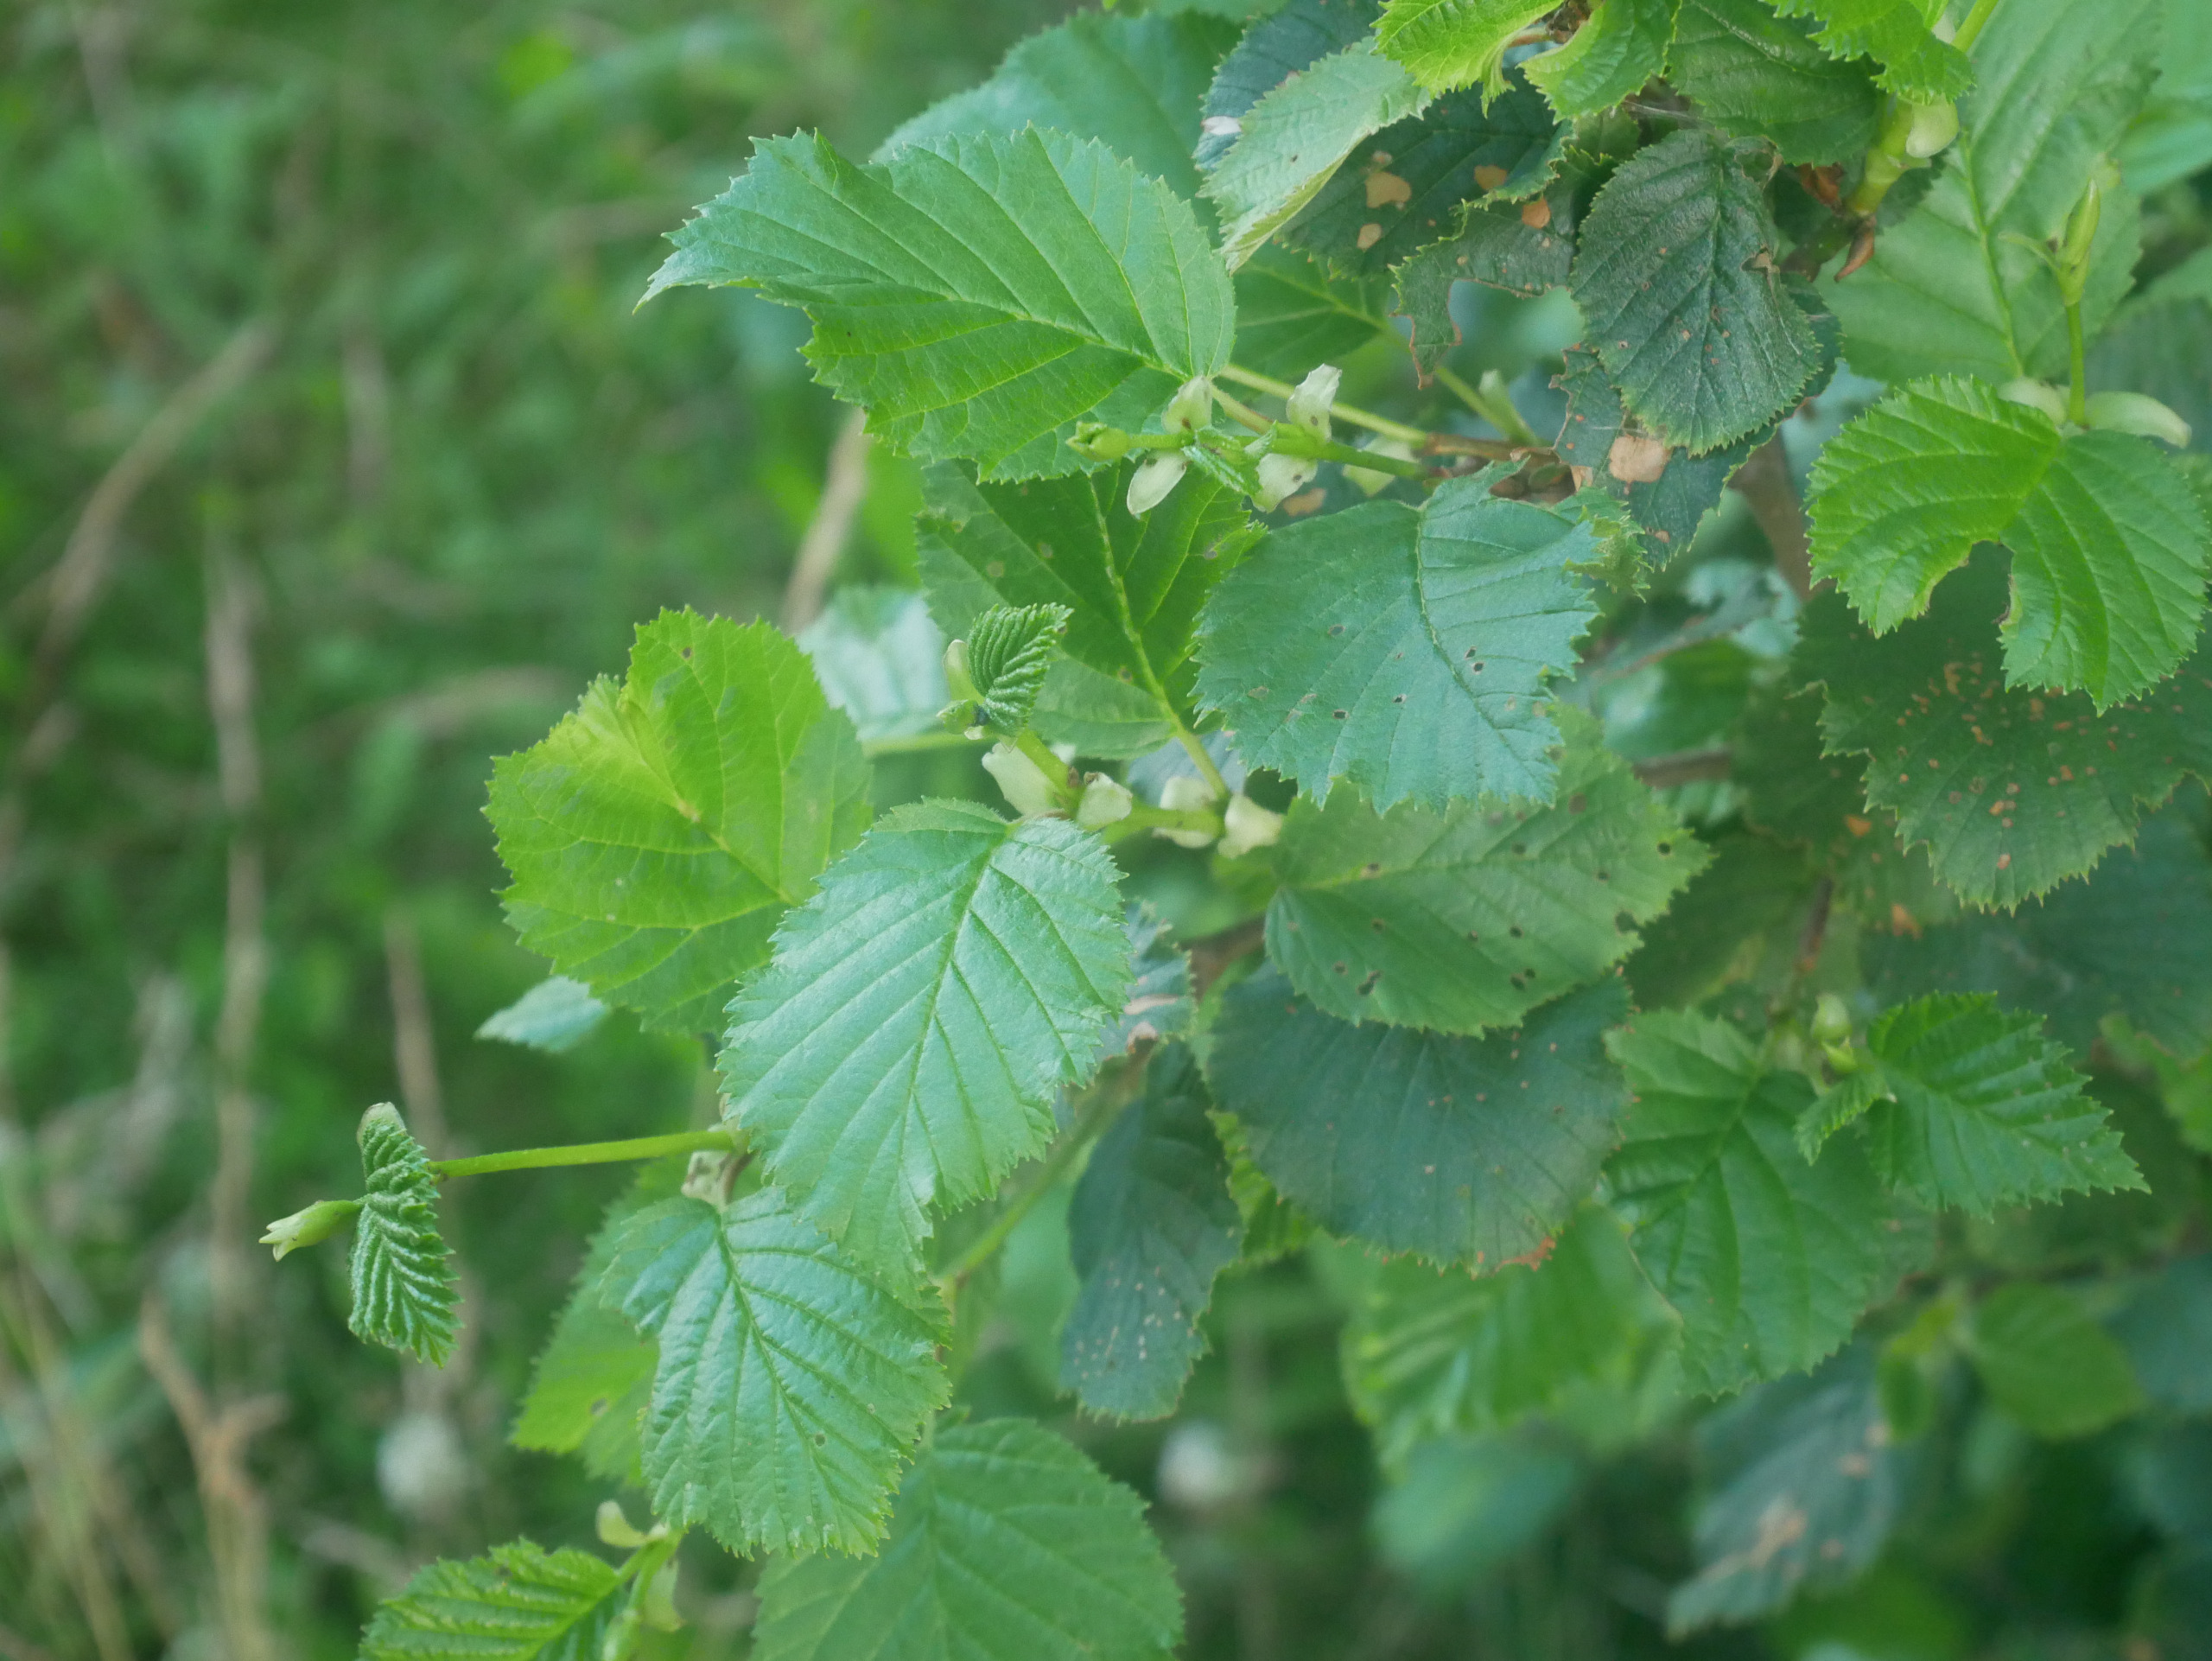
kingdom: Plantae
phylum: Tracheophyta
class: Magnoliopsida
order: Fagales
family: Betulaceae
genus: Alnus
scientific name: Alnus incana
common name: Grå-el/hvid-el
